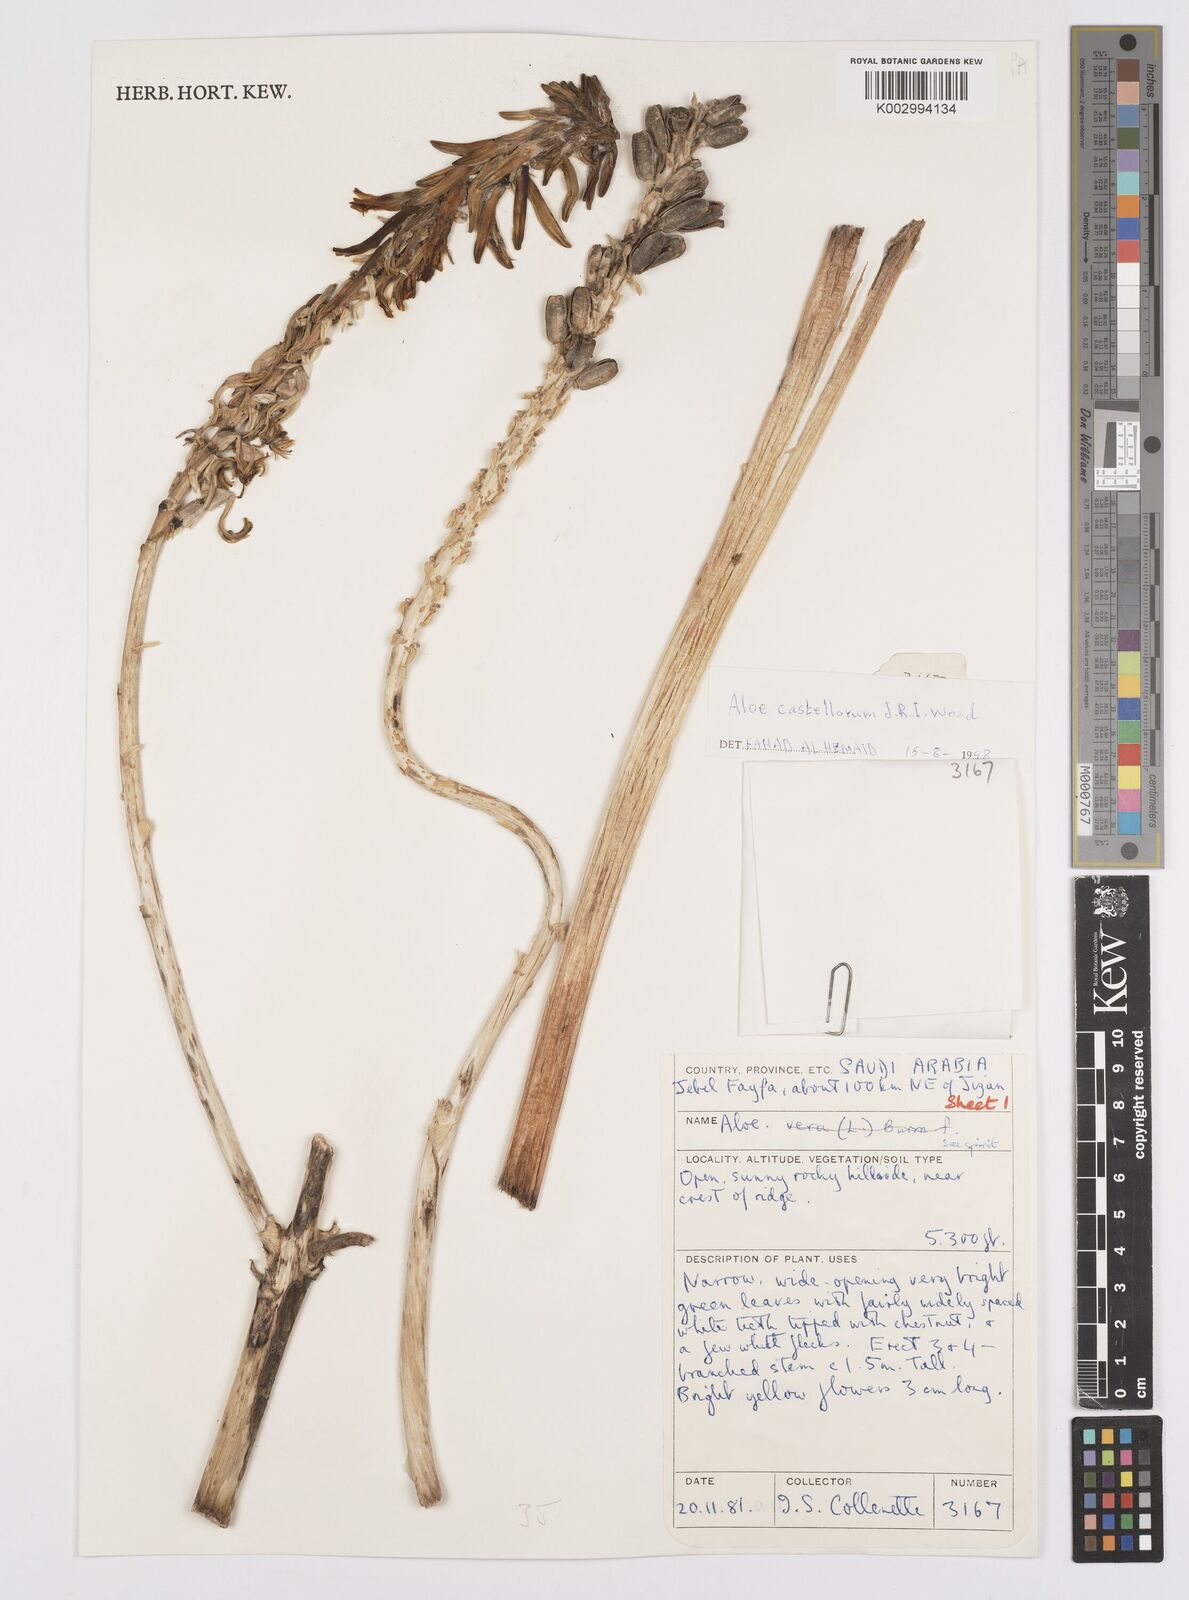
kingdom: Plantae
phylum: Tracheophyta
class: Liliopsida
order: Asparagales
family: Asphodelaceae
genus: Aloe
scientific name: Aloe castellorum
